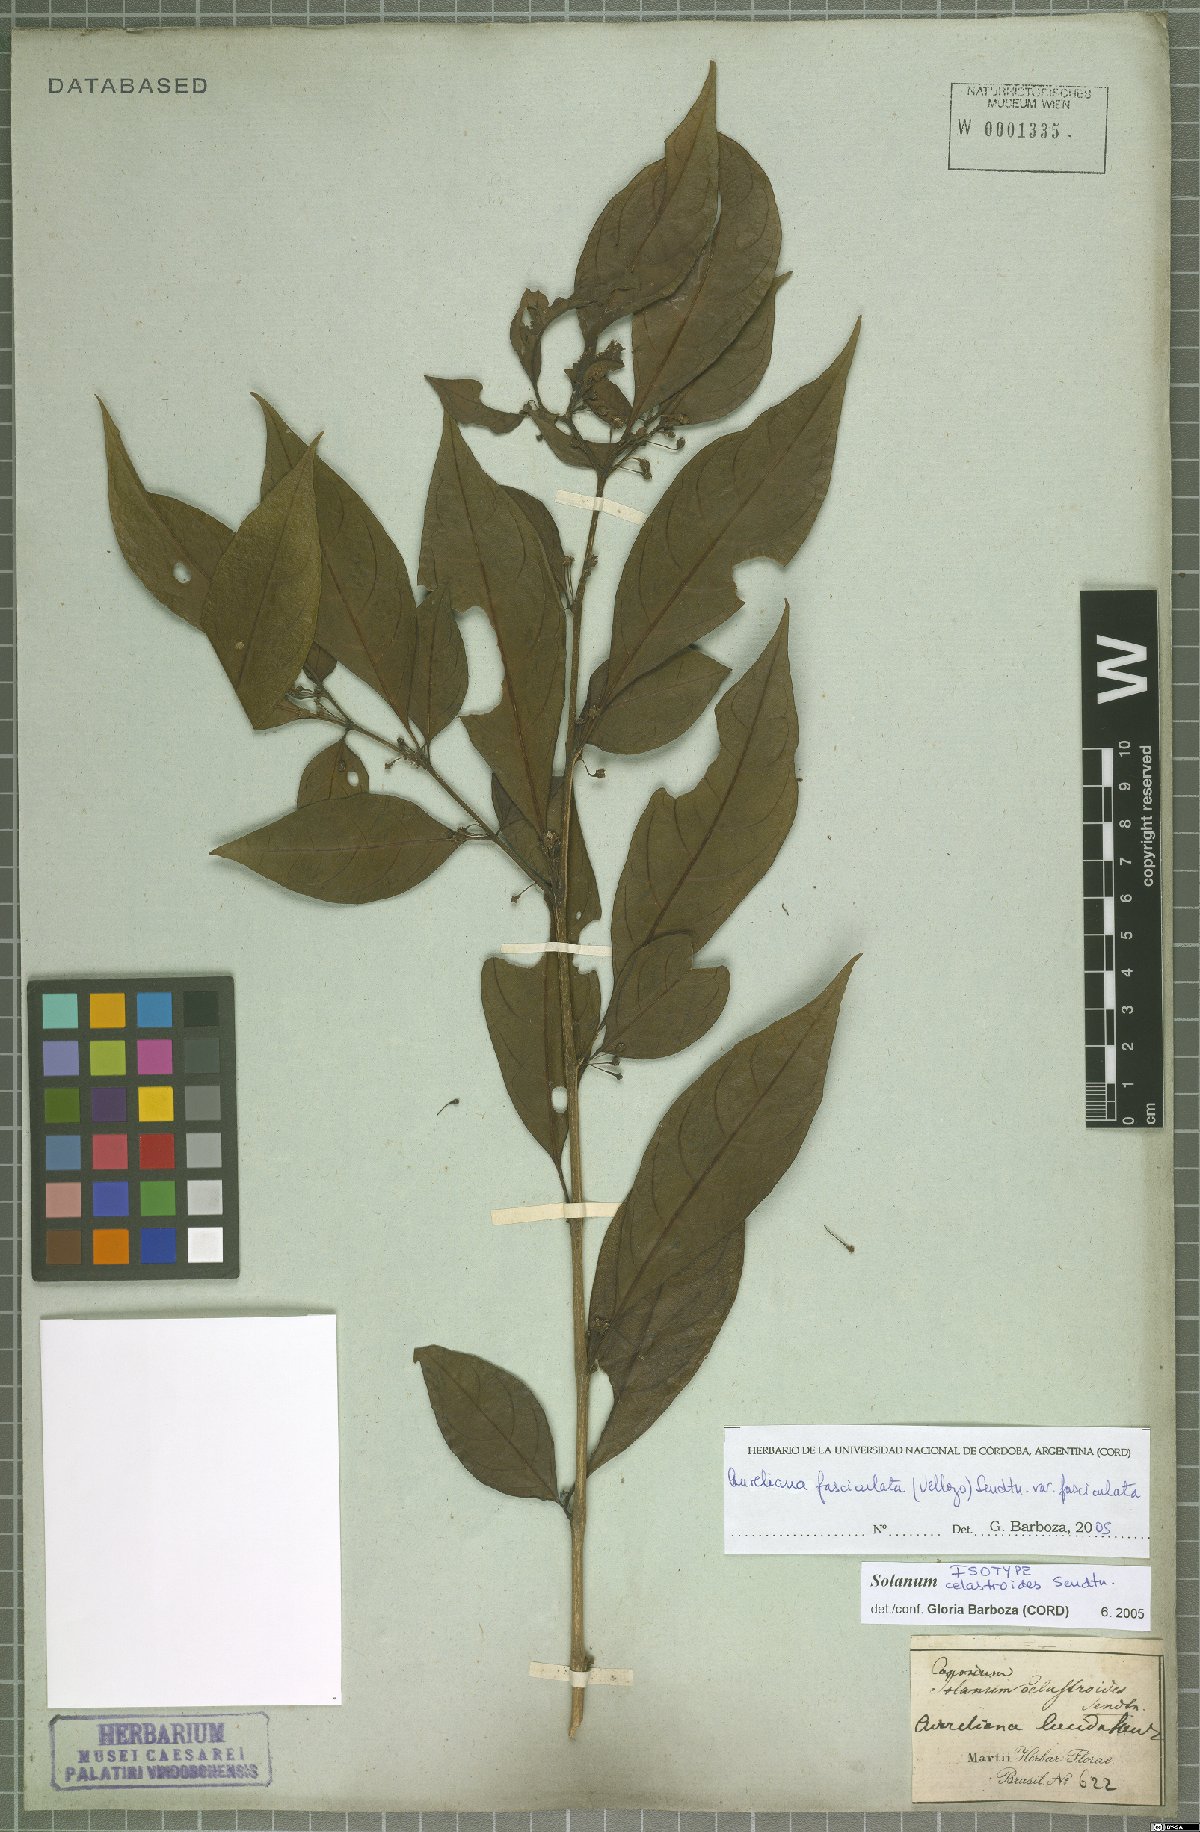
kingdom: Plantae
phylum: Tracheophyta
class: Magnoliopsida
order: Solanales
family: Solanaceae
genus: Athenaea
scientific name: Athenaea fasciculata
